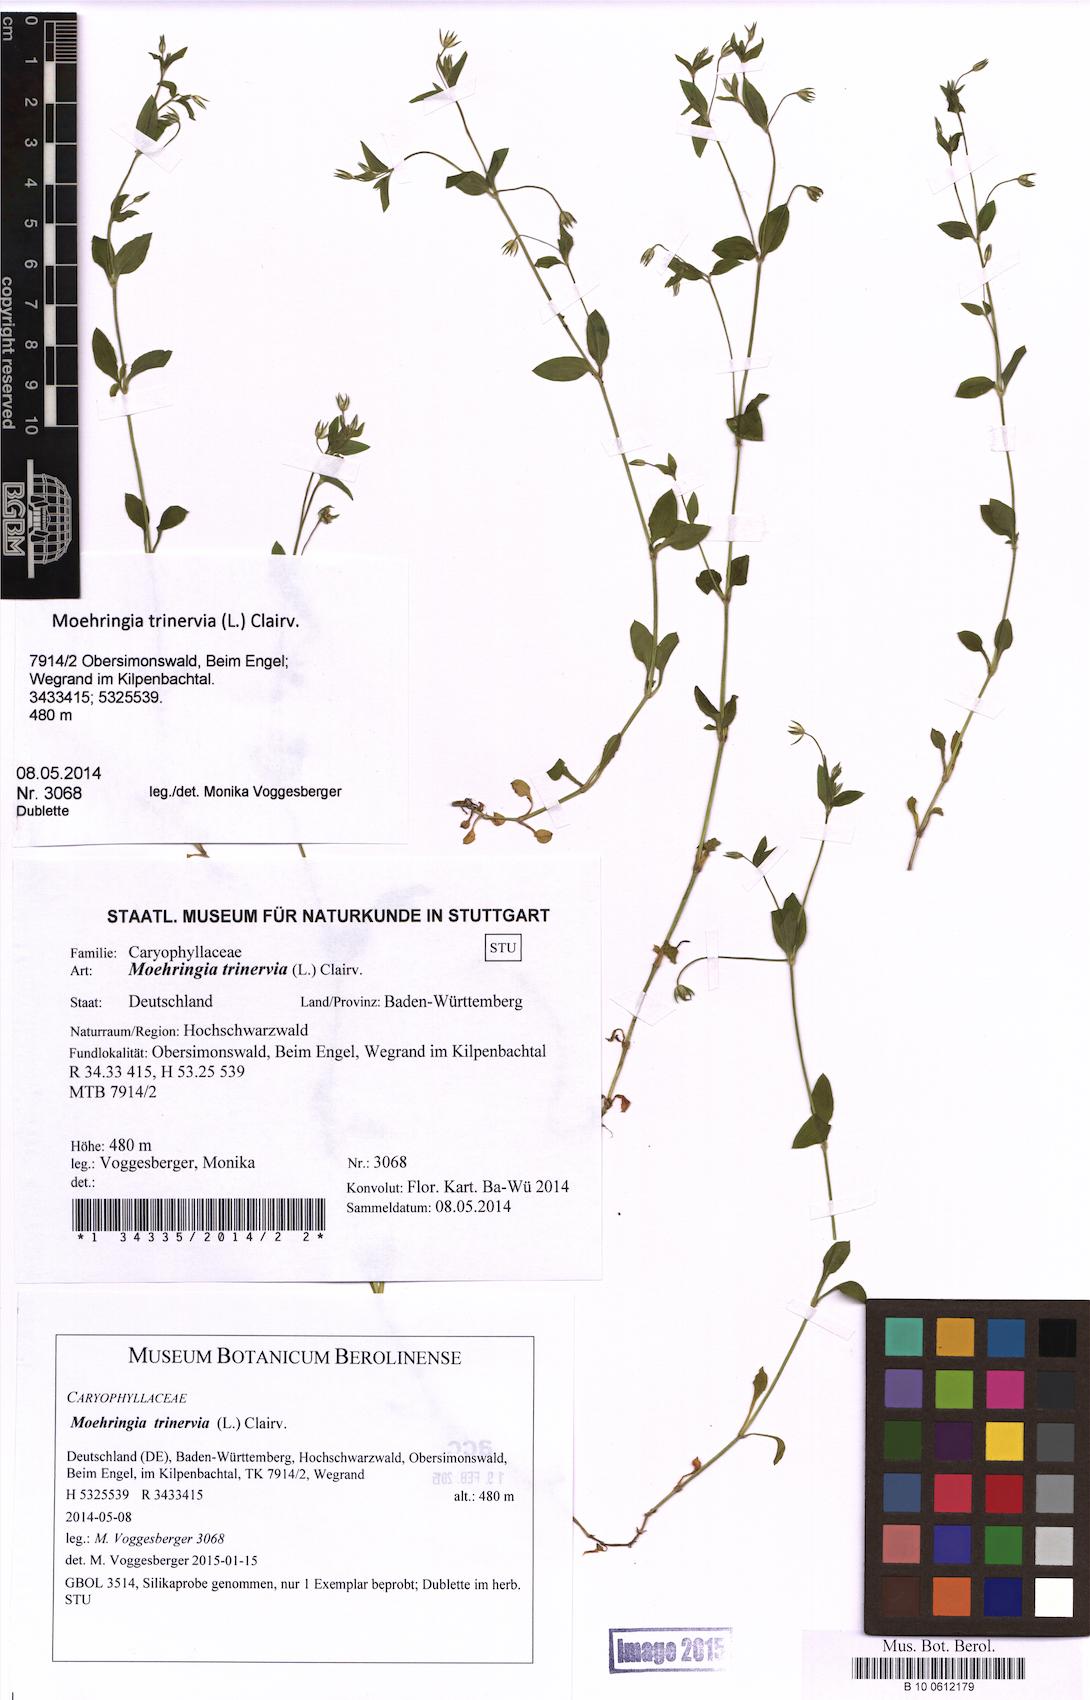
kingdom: Plantae
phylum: Tracheophyta
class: Magnoliopsida
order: Caryophyllales
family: Caryophyllaceae
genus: Moehringia
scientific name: Moehringia trinervia
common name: Three-nerved sandwort
